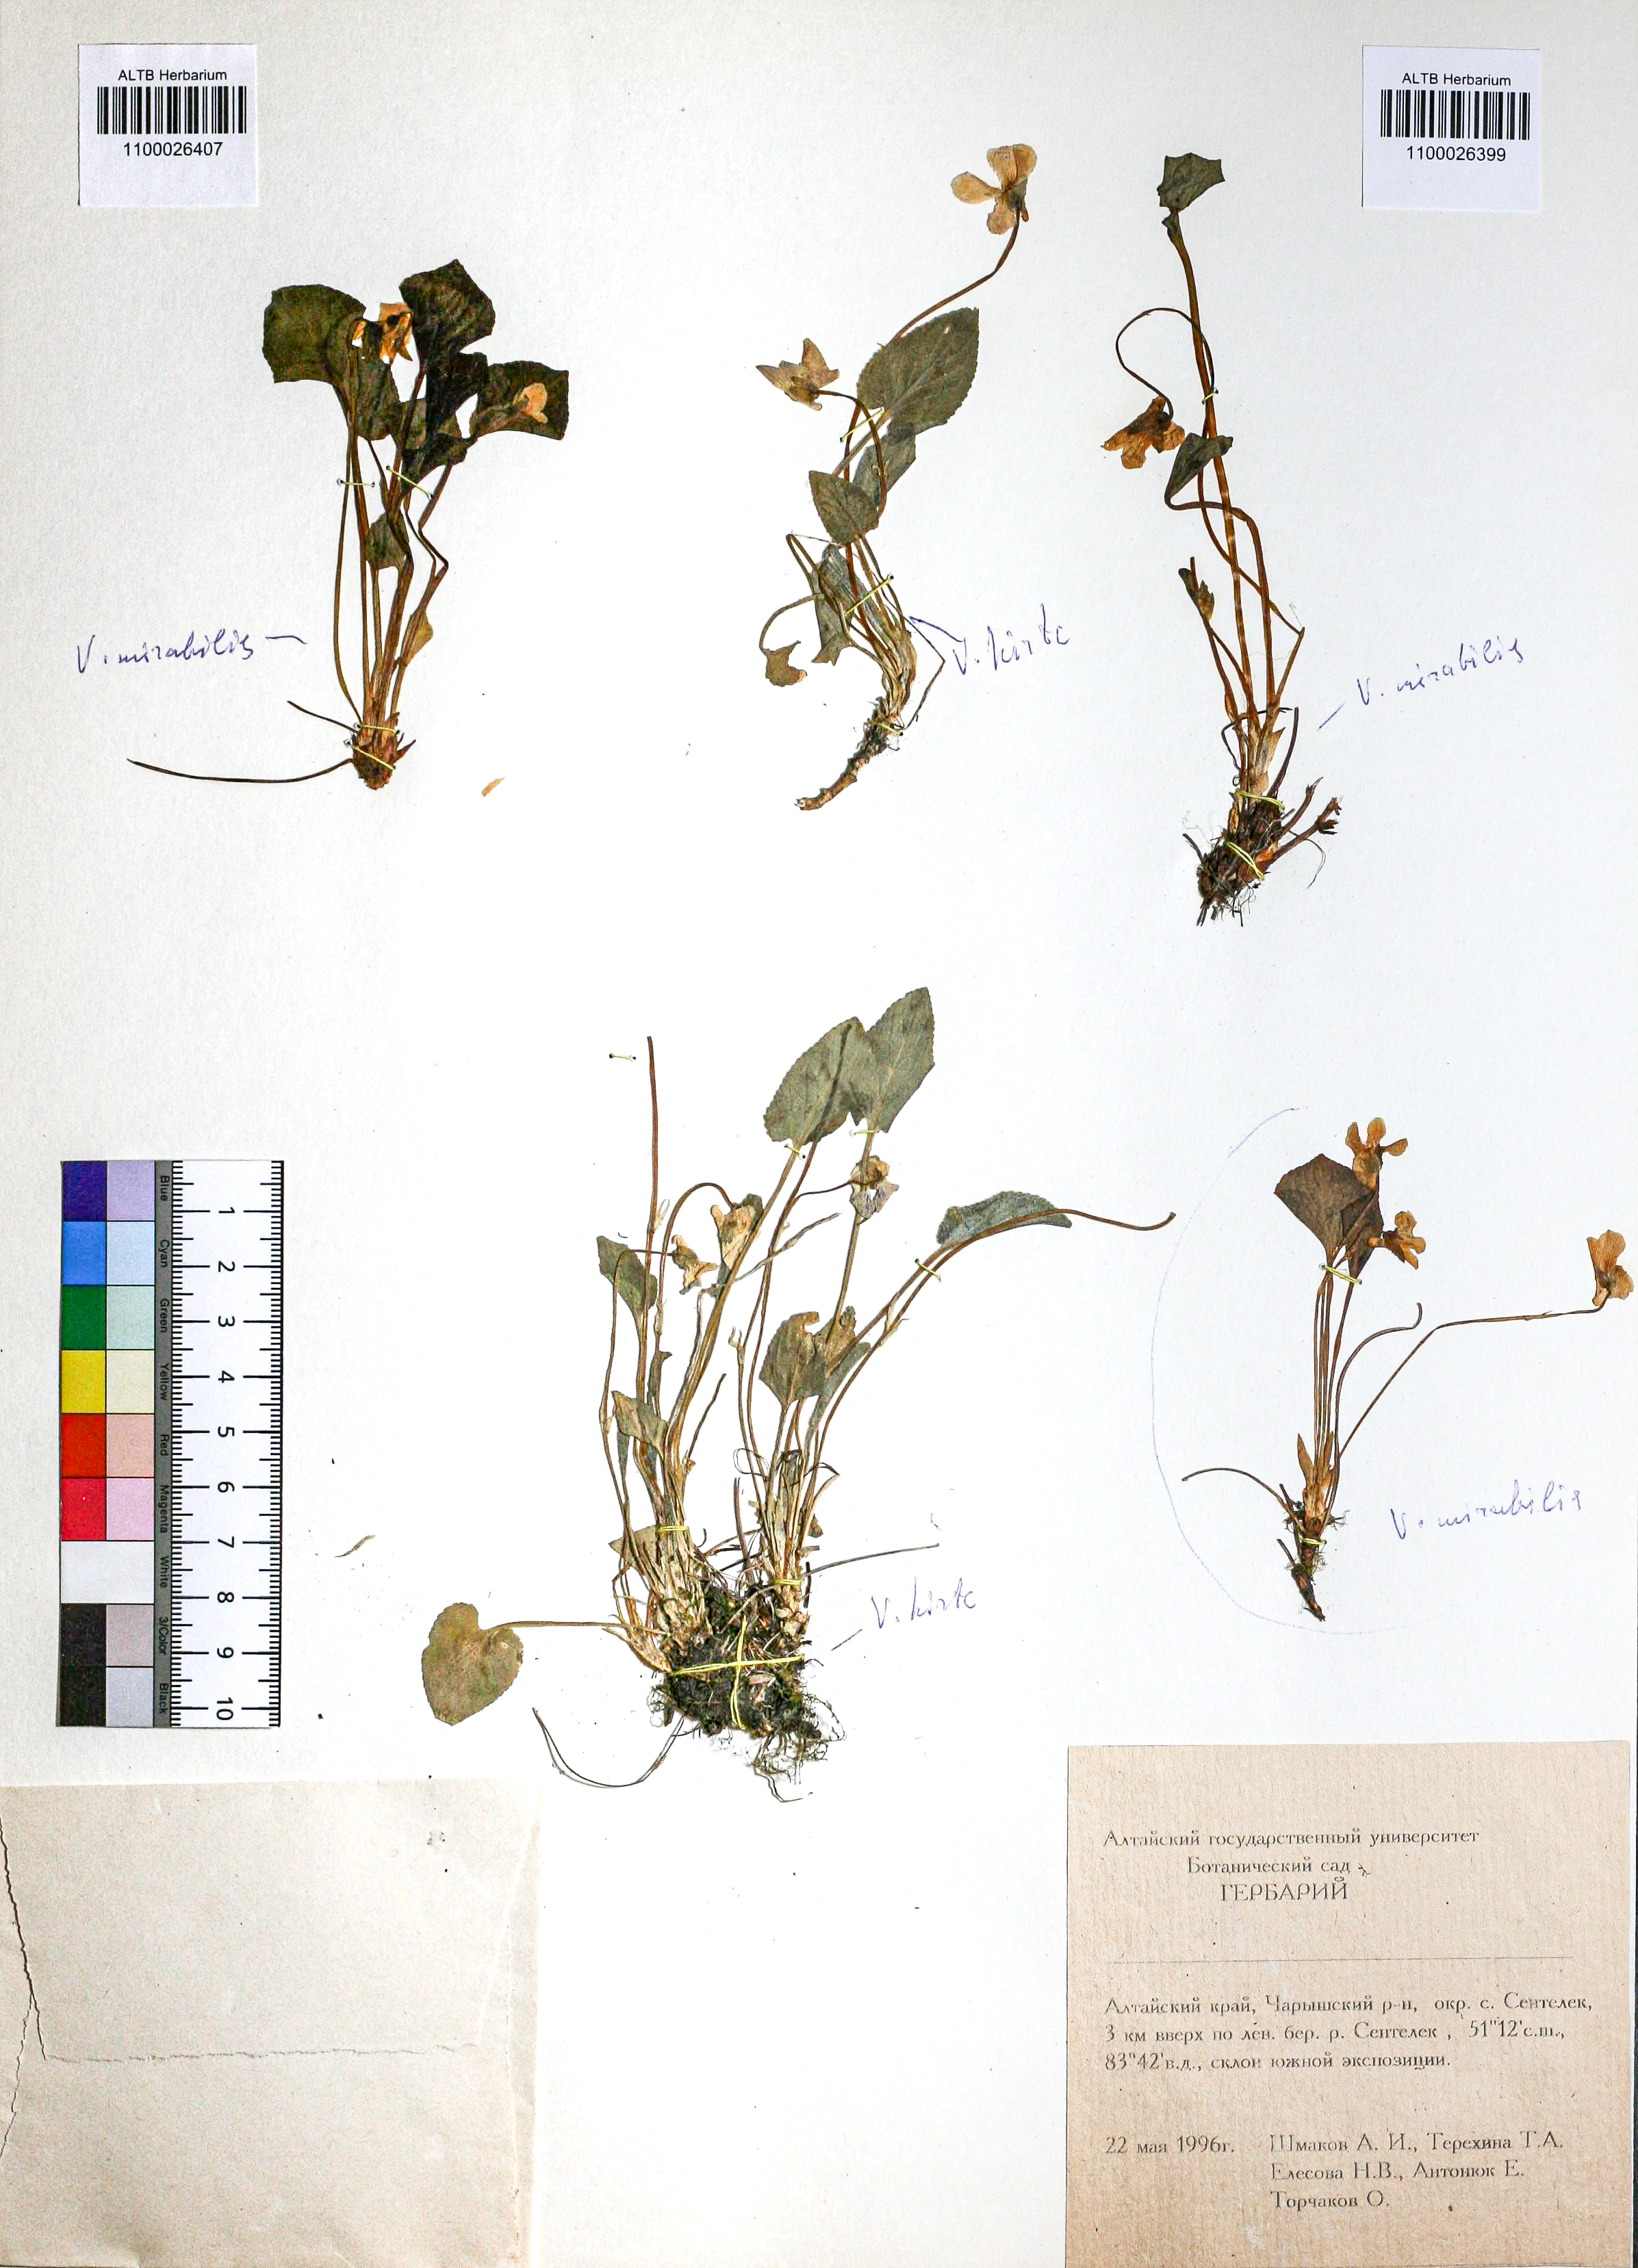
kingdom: Plantae
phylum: Tracheophyta
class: Magnoliopsida
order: Malpighiales
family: Violaceae
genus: Viola
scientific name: Viola hirta
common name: Hairy violet
